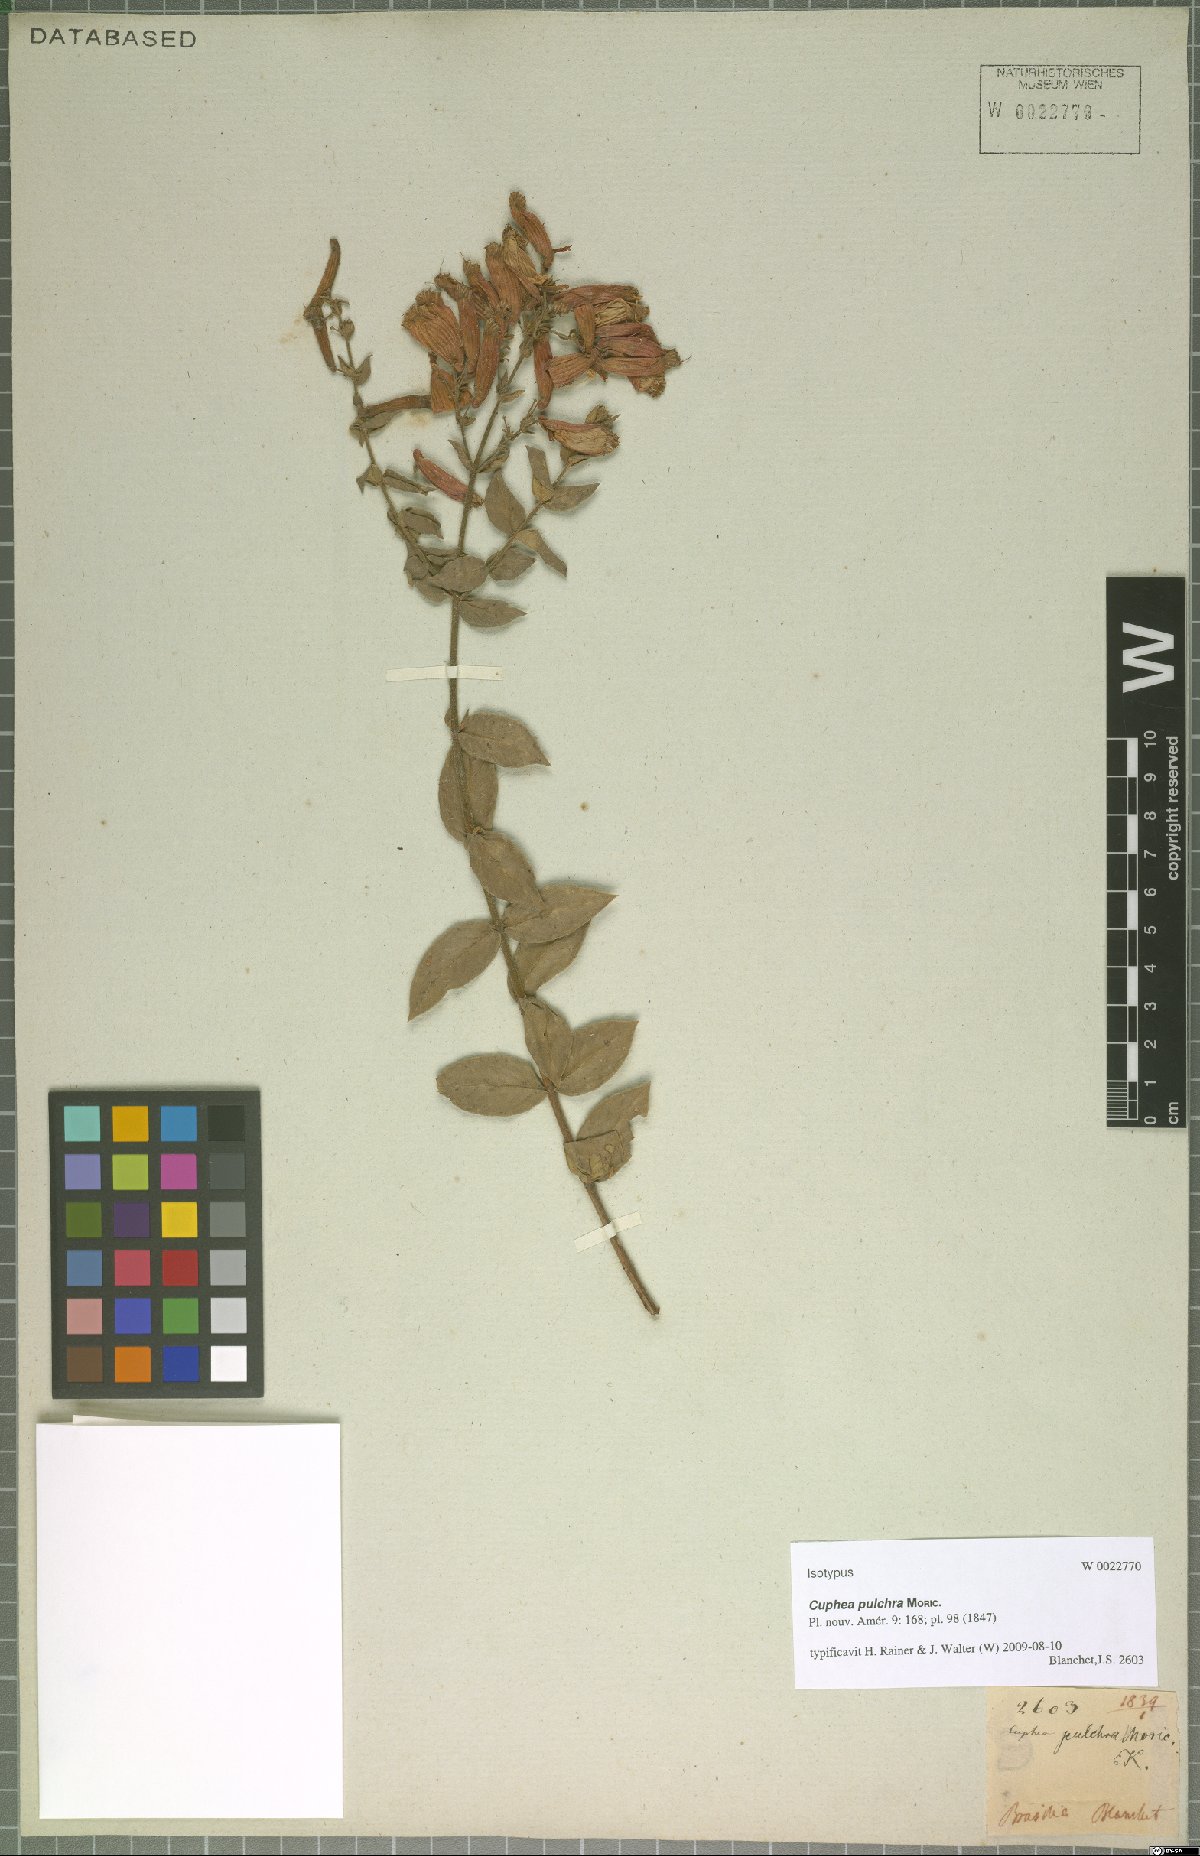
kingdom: Plantae
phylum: Tracheophyta
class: Magnoliopsida
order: Myrtales
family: Lythraceae
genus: Cuphea
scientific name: Cuphea pulchra
